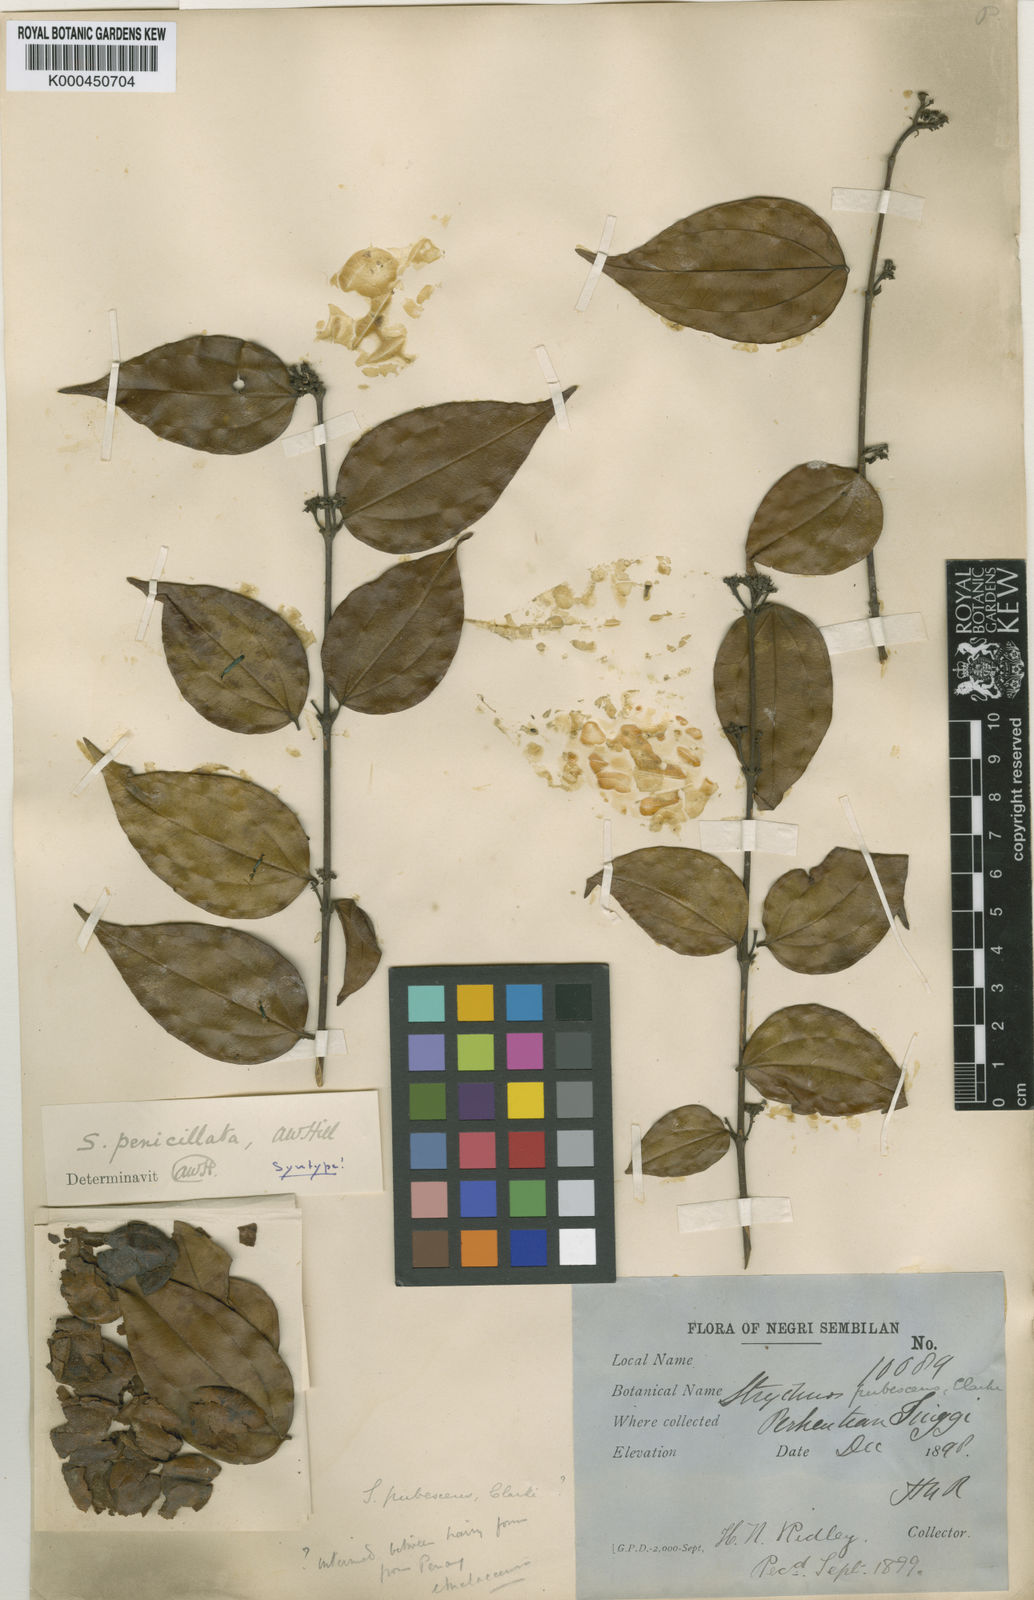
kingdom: Plantae
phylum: Tracheophyta
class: Magnoliopsida
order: Gentianales
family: Loganiaceae
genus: Strychnos
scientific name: Strychnos axillaris
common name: Strychninebush
